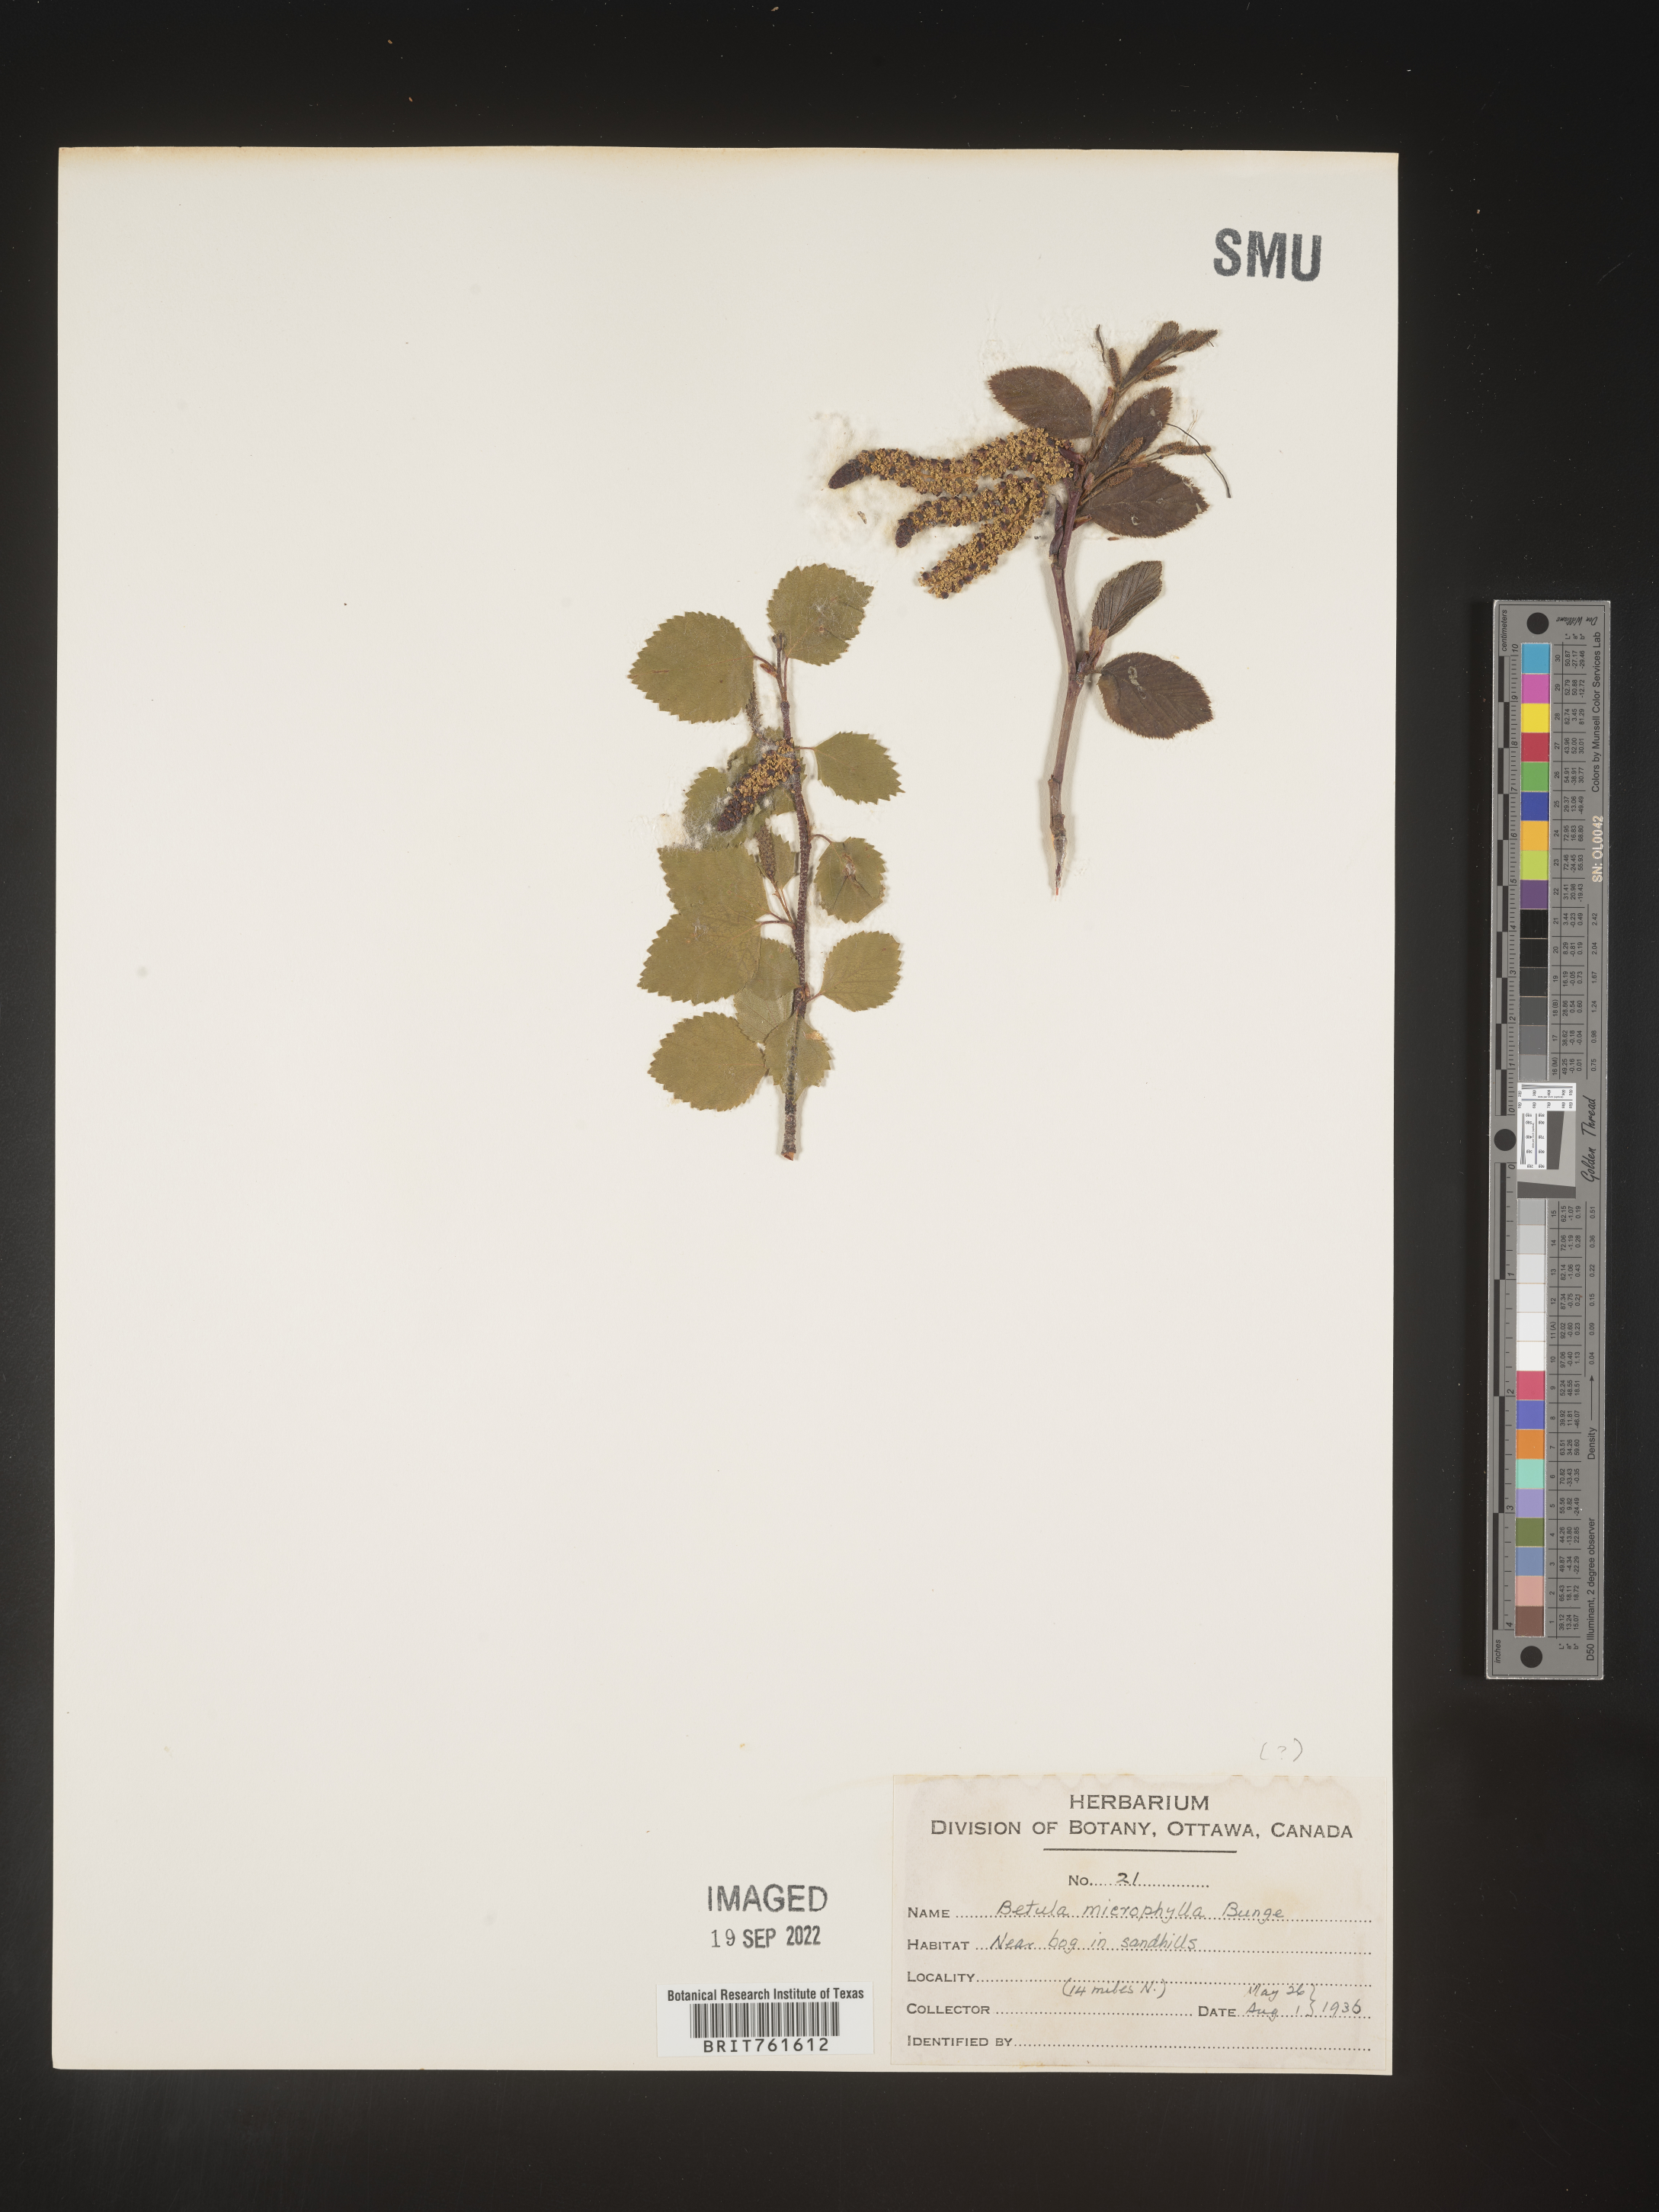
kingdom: Plantae
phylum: Tracheophyta
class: Magnoliopsida
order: Fagales
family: Betulaceae
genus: Betula
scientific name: Betula
